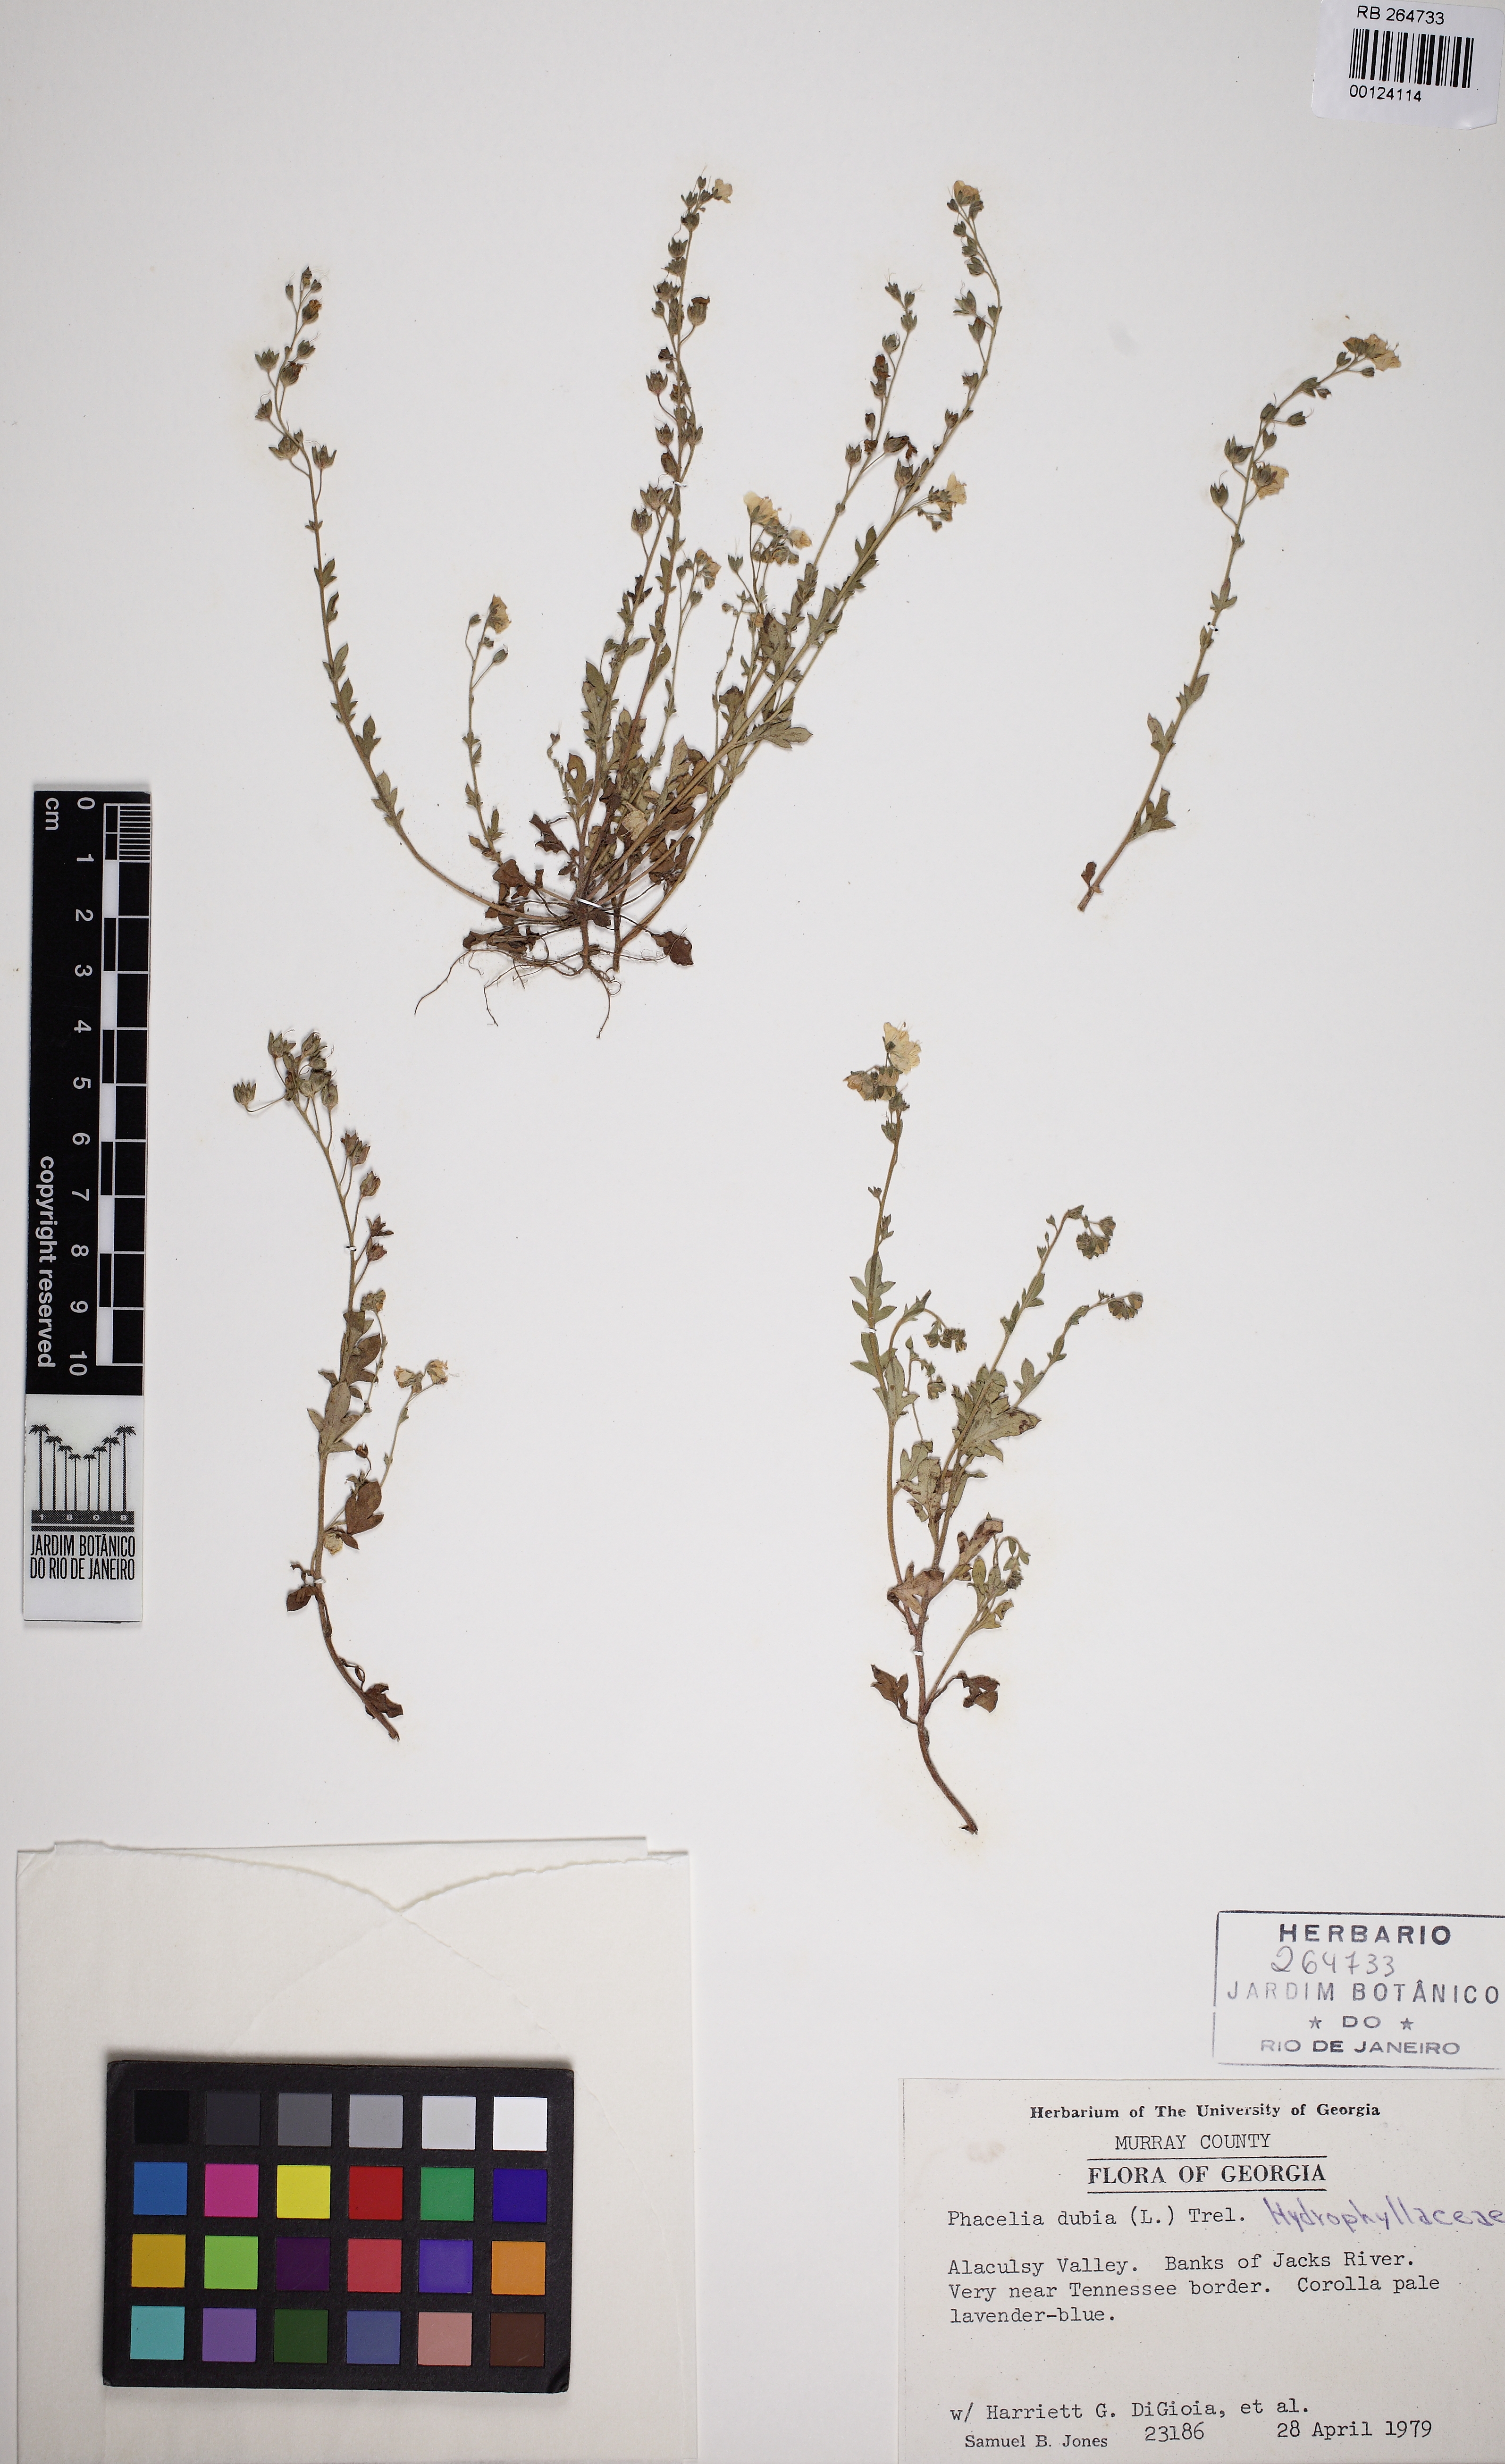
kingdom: Plantae
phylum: Tracheophyta
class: Magnoliopsida
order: Boraginales
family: Hydrophyllaceae
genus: Phacelia
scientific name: Phacelia dubia
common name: Appalachian phacelia
